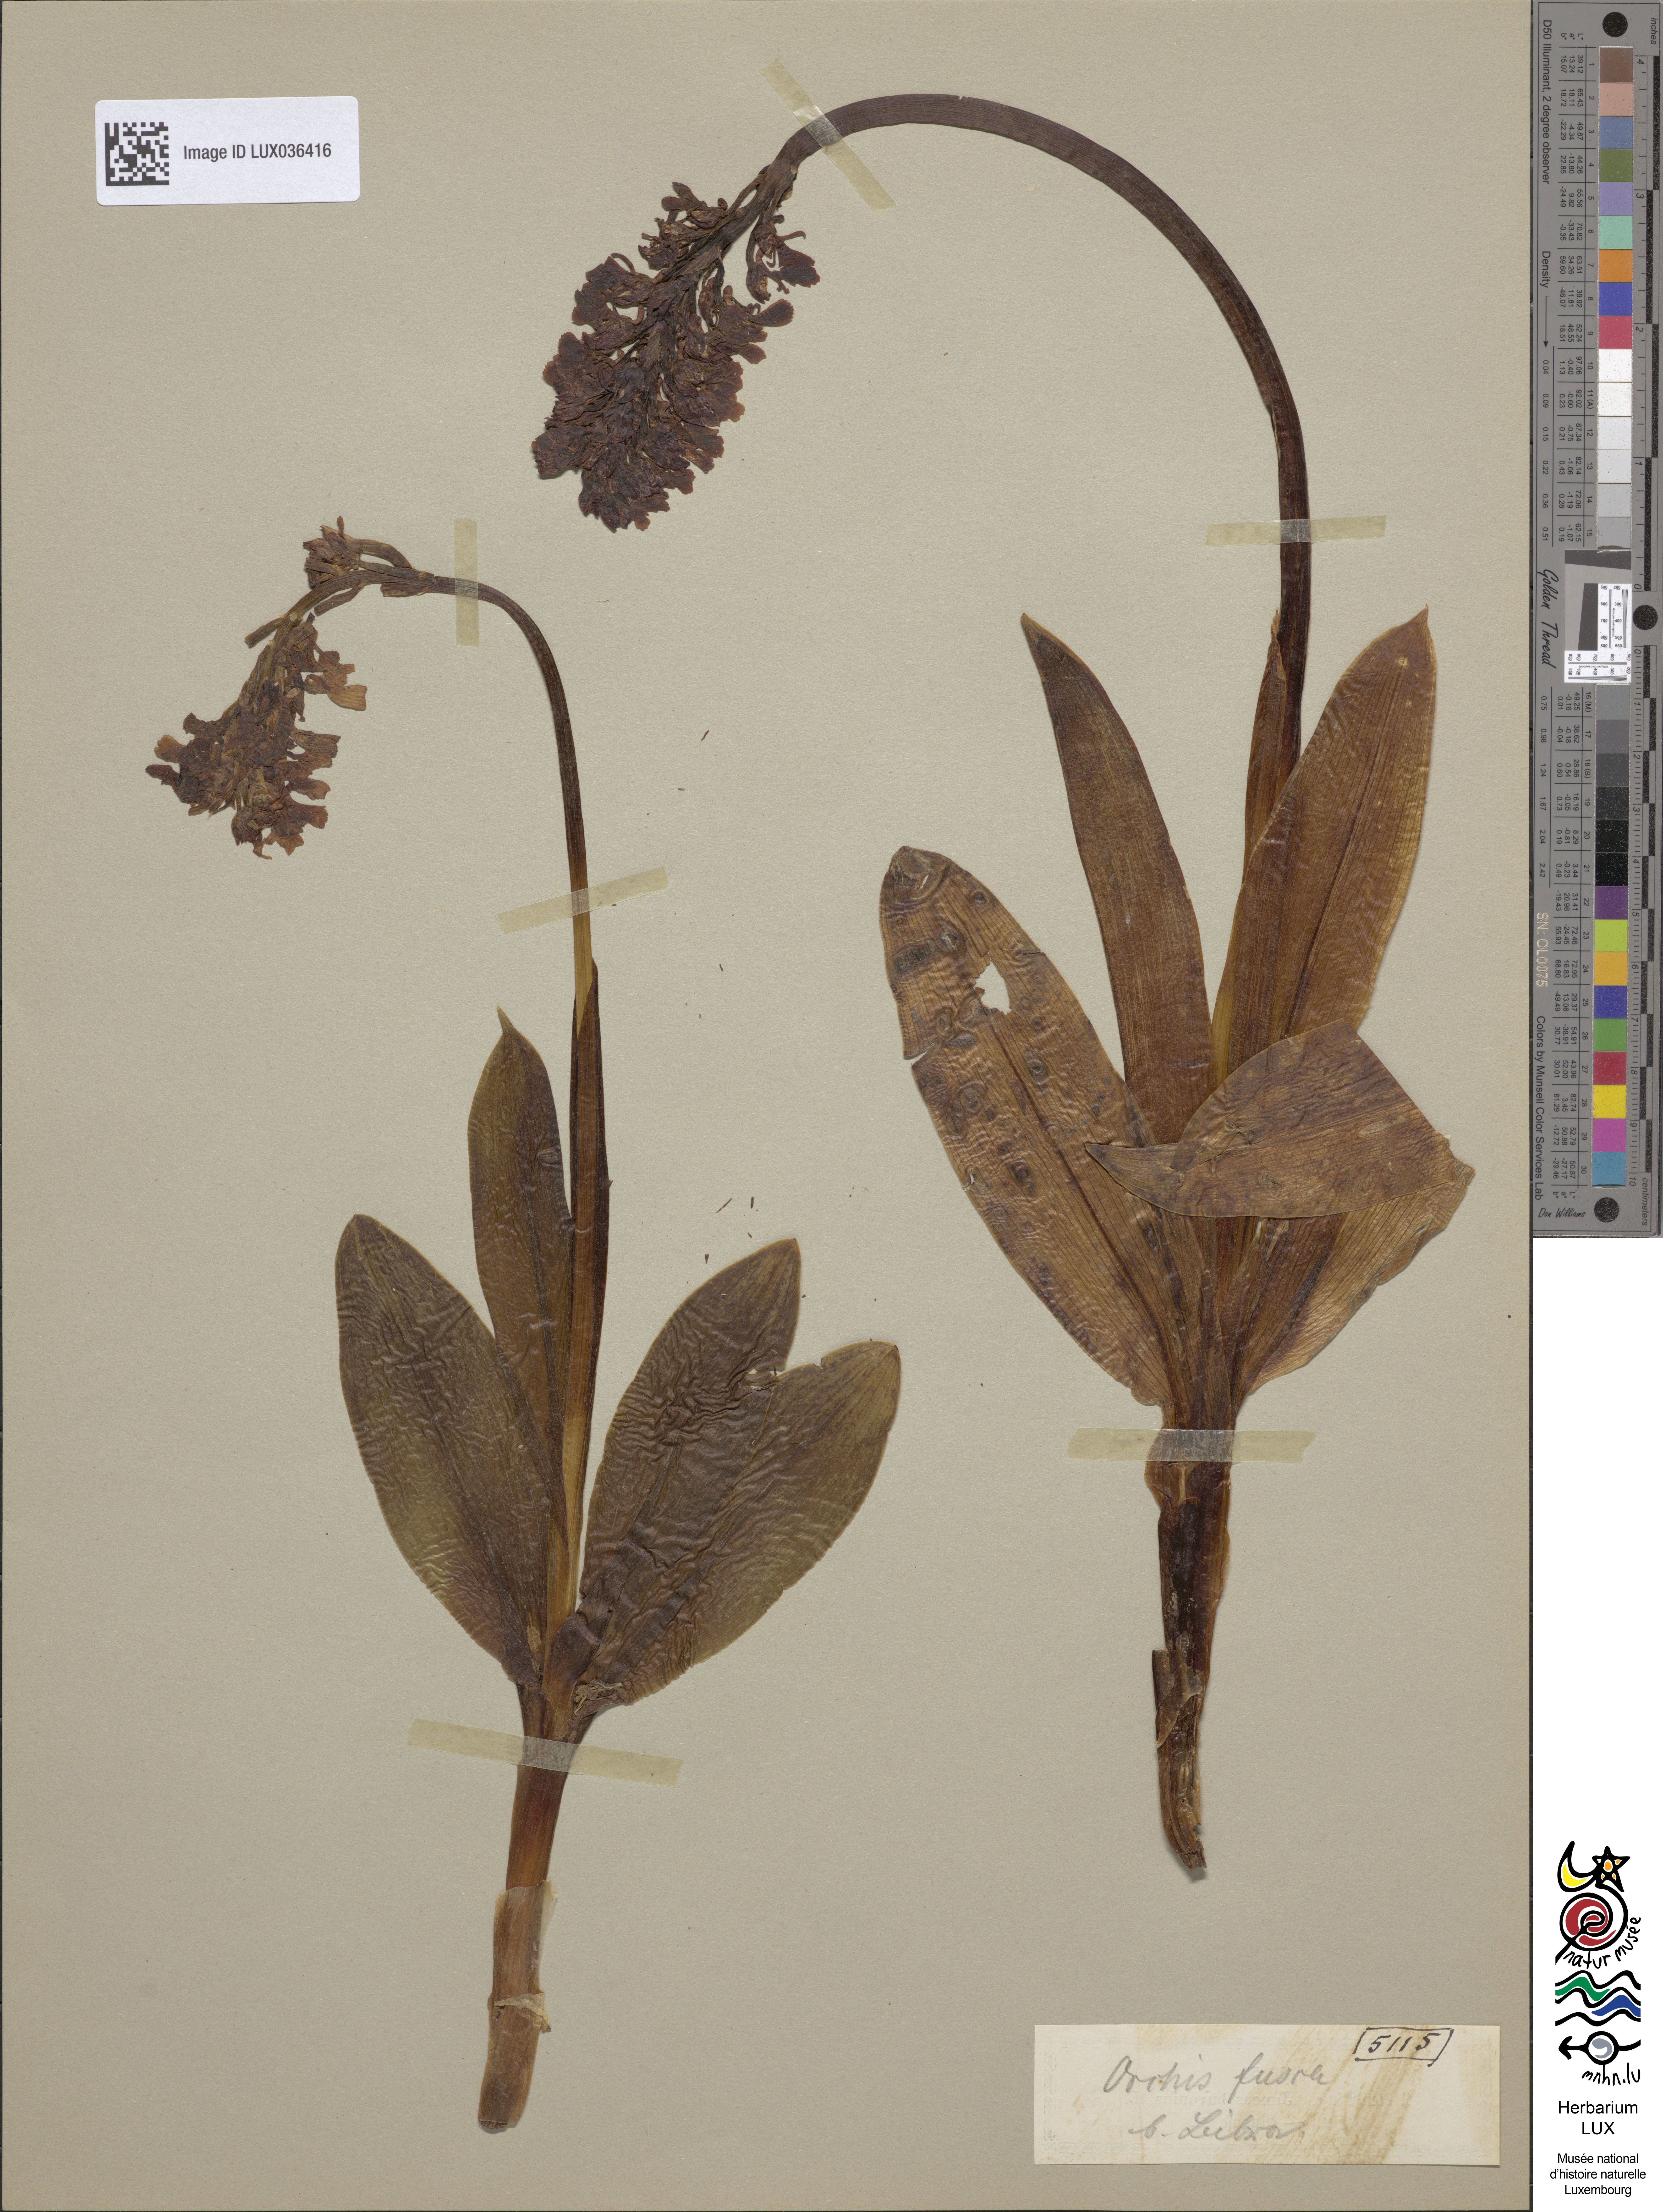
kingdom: Plantae
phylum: Tracheophyta
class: Liliopsida
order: Asparagales
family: Orchidaceae
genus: Orchis
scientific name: Orchis purpurea
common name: Lady orchid
